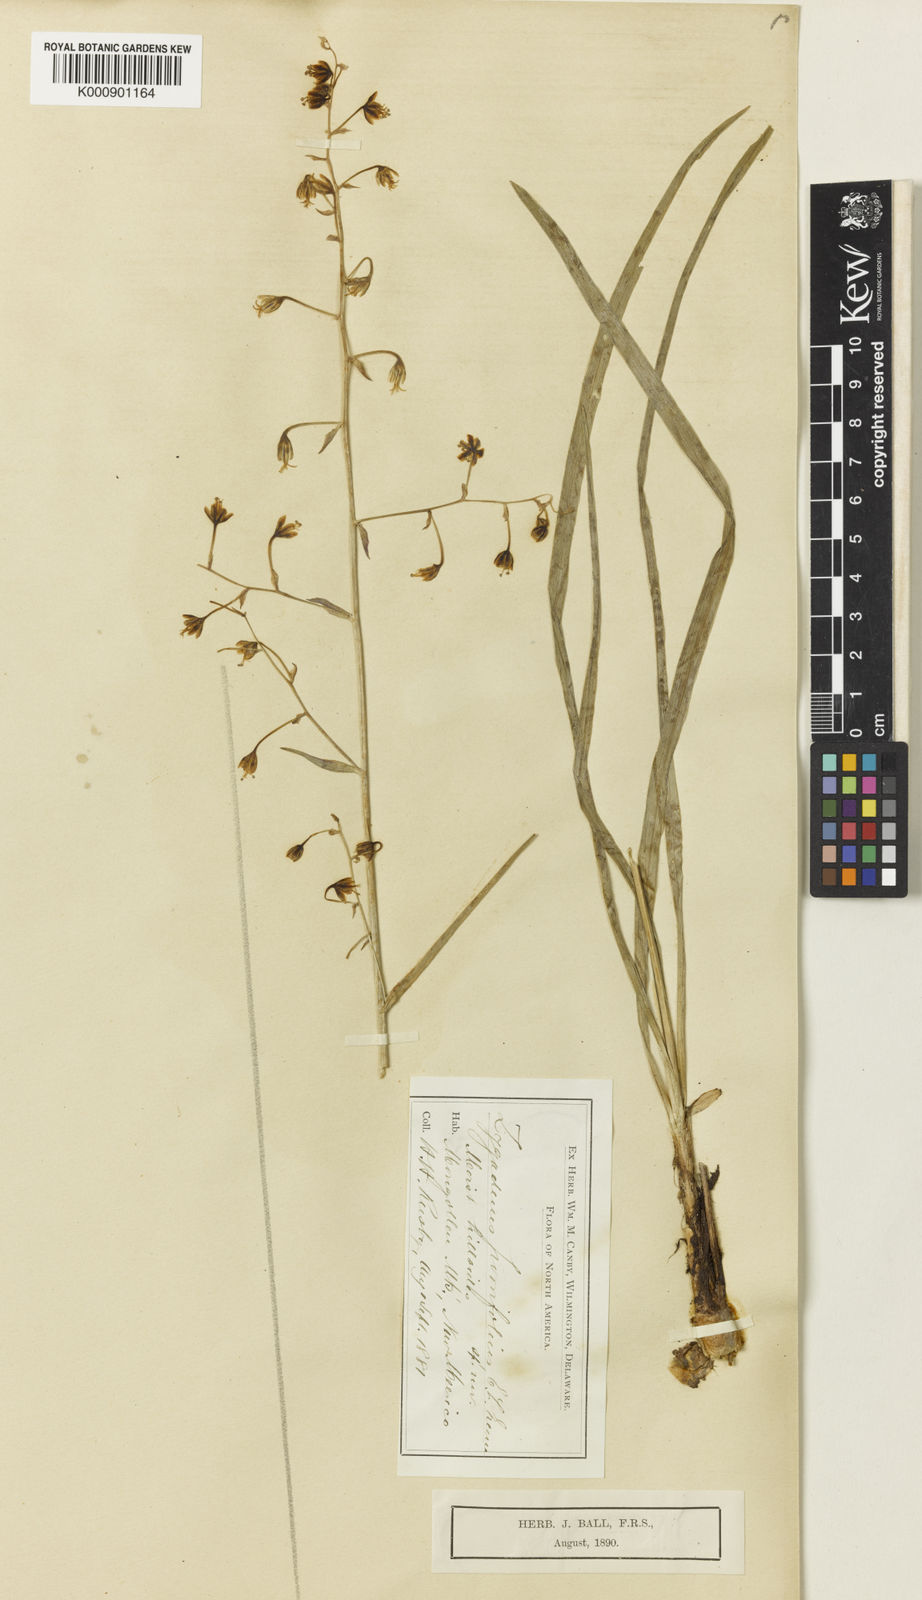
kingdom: Plantae
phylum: Tracheophyta
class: Liliopsida
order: Liliales
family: Melanthiaceae
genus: Anticlea
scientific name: Anticlea virescens
